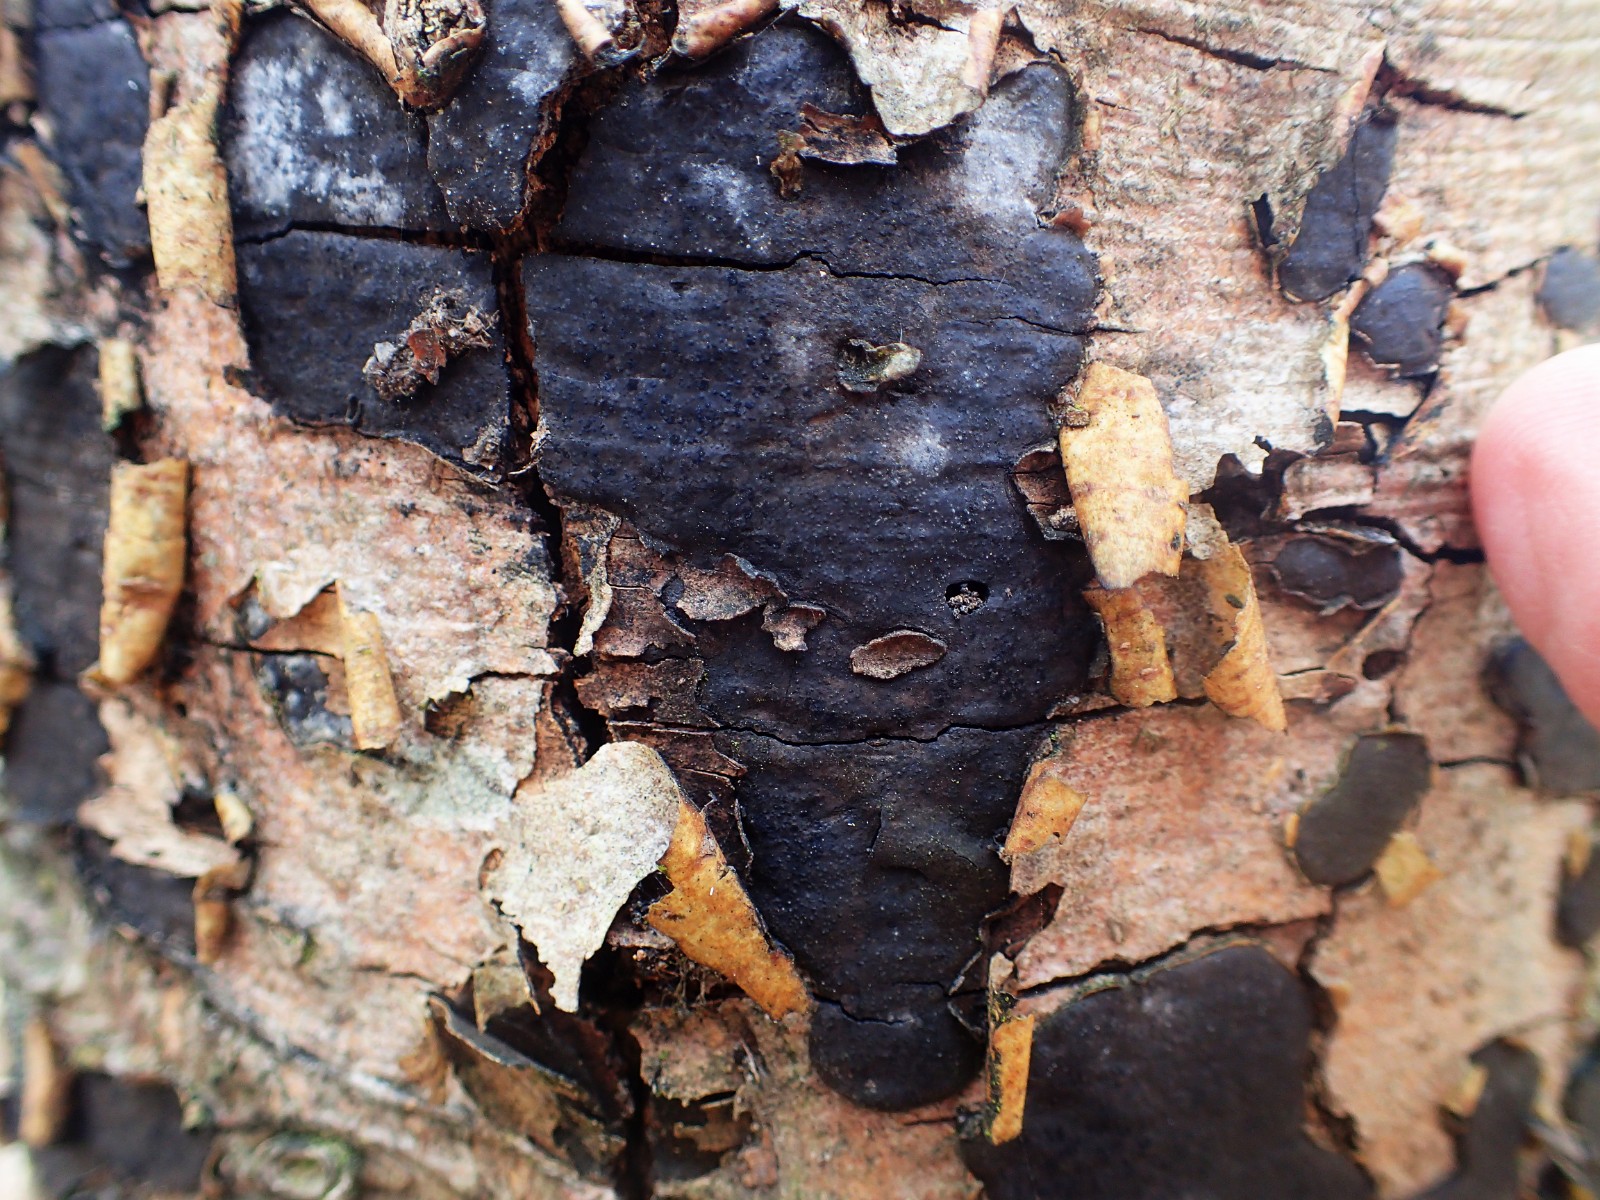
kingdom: Fungi
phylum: Ascomycota
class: Sordariomycetes
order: Xylariales
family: Graphostromataceae
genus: Biscogniauxia
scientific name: Biscogniauxia nummularia
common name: bøge-kulskive
